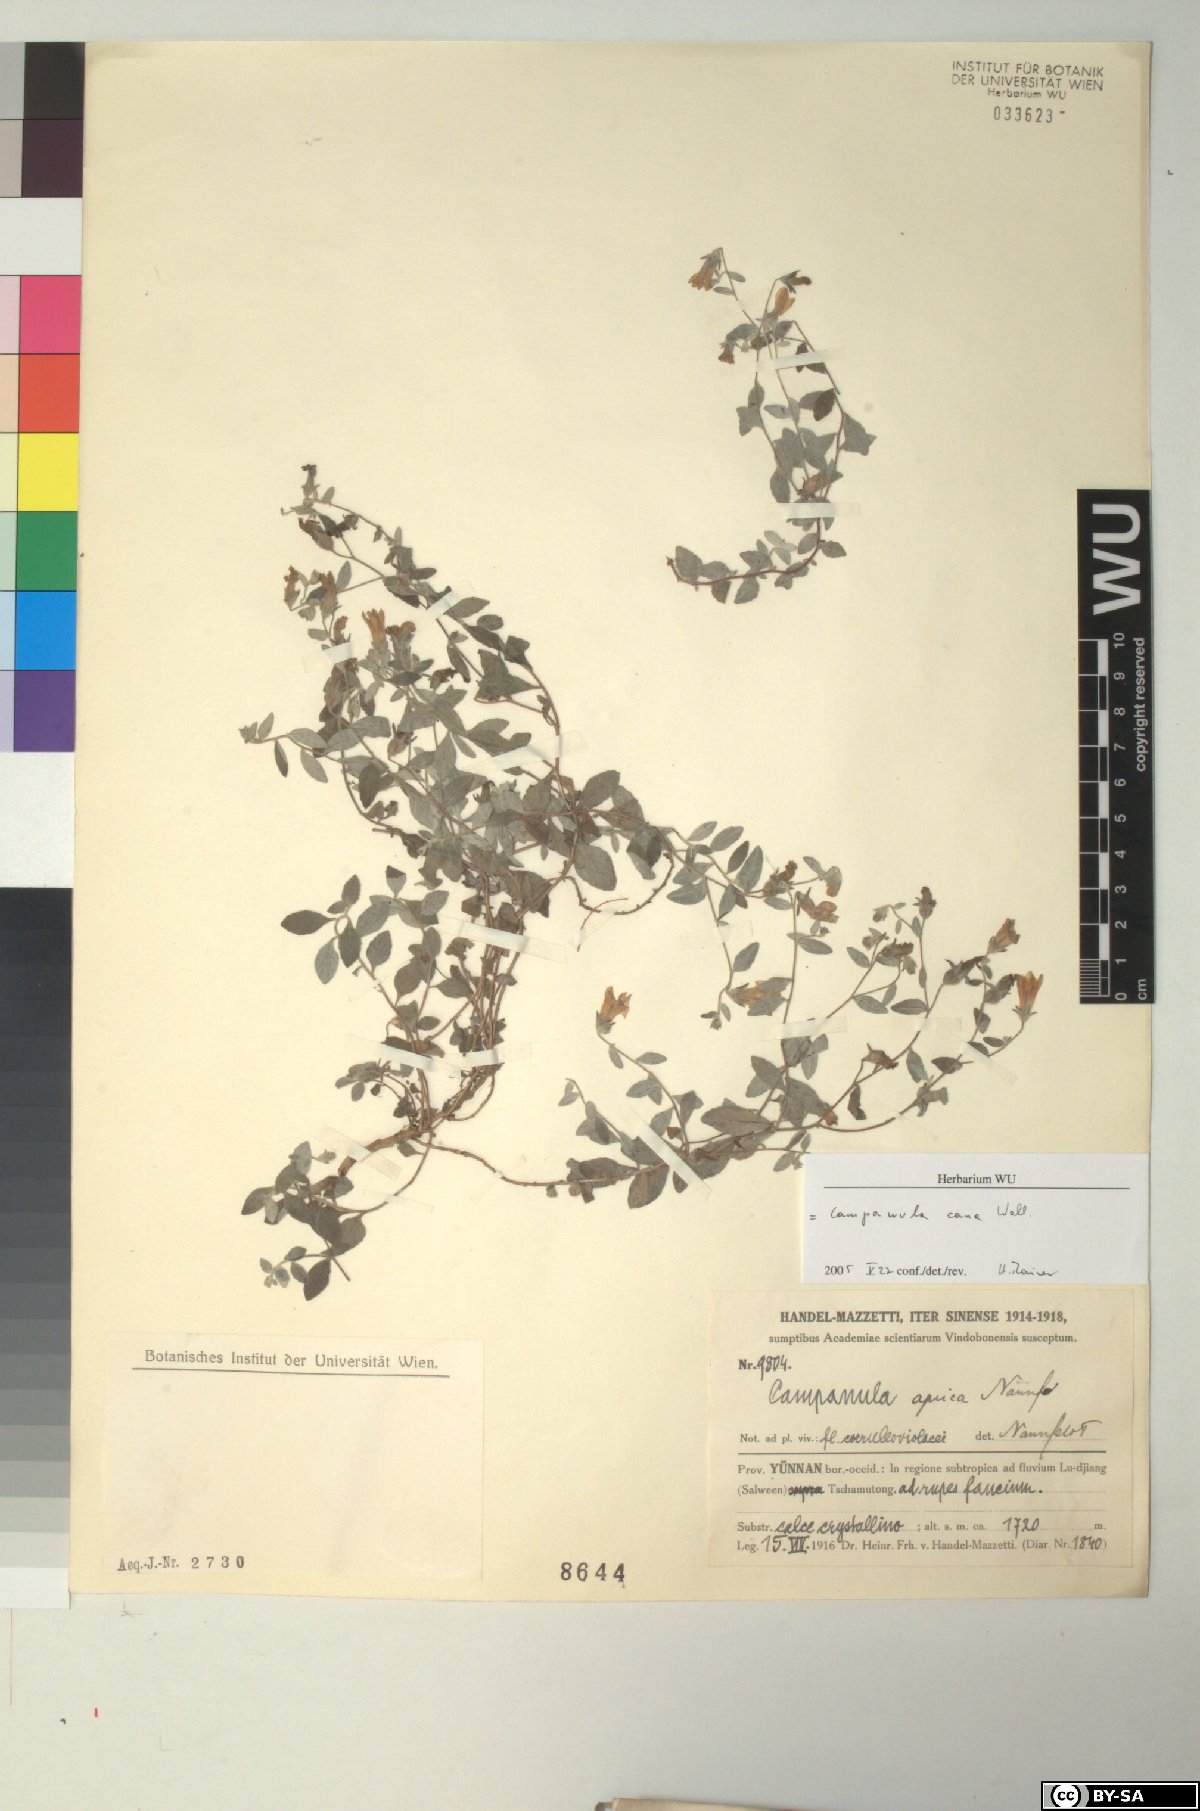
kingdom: Plantae
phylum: Tracheophyta
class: Magnoliopsida
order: Asterales
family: Campanulaceae
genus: Campanula
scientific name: Campanula cana
